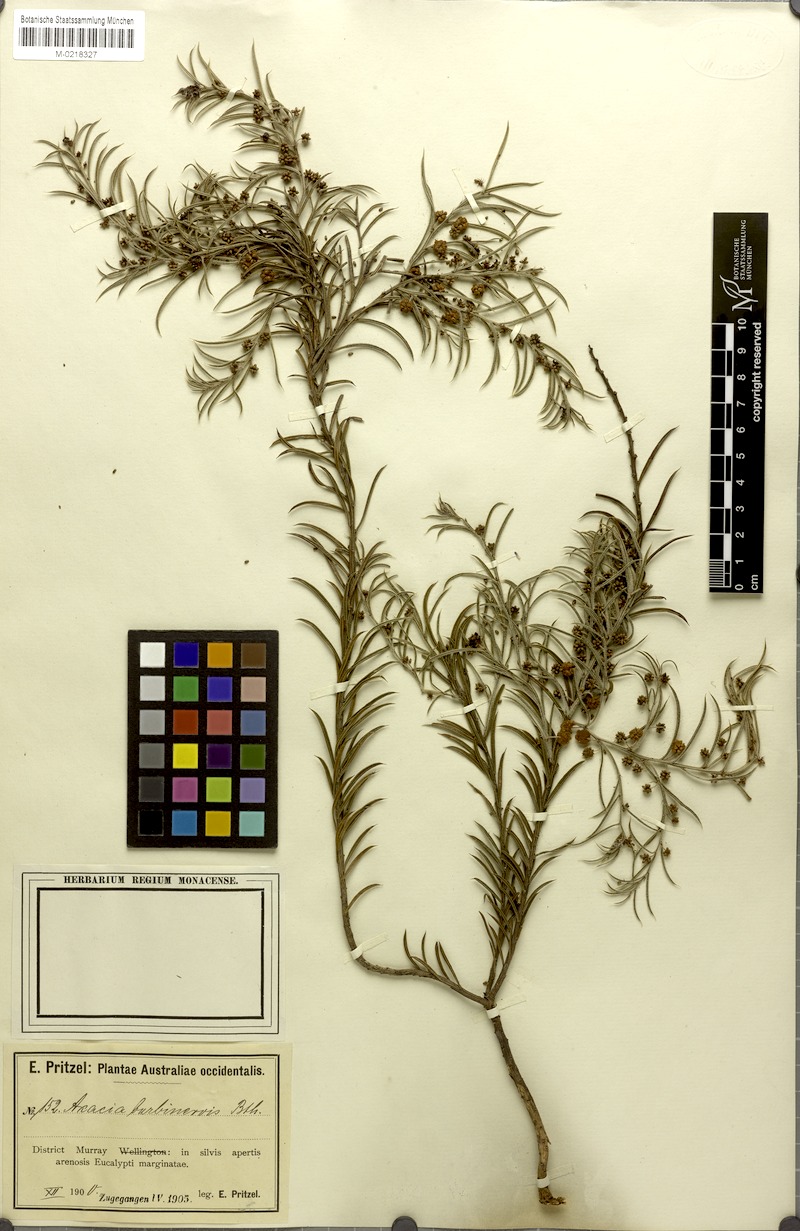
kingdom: Plantae
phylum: Tracheophyta
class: Magnoliopsida
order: Fabales
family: Fabaceae
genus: Acacia
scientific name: Acacia barbinervis
